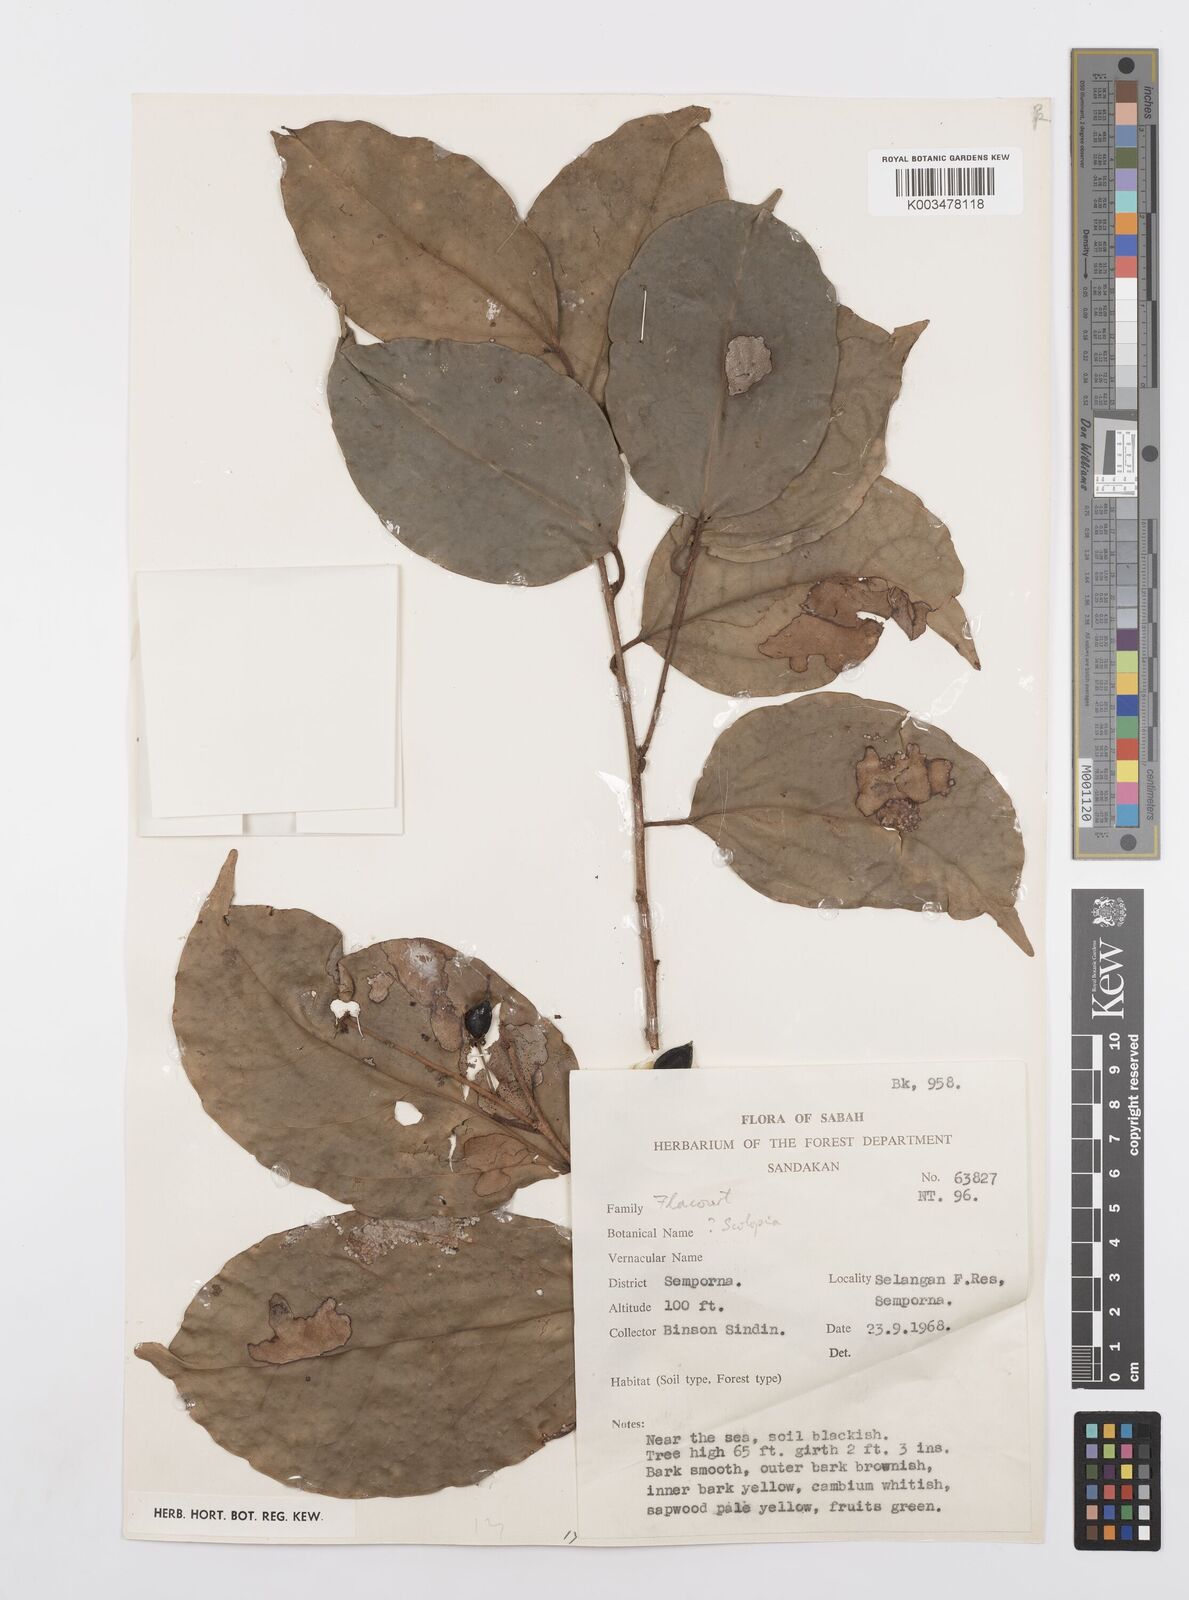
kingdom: Plantae
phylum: Tracheophyta
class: Magnoliopsida
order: Malpighiales
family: Salicaceae
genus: Scolopia
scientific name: Scolopia
